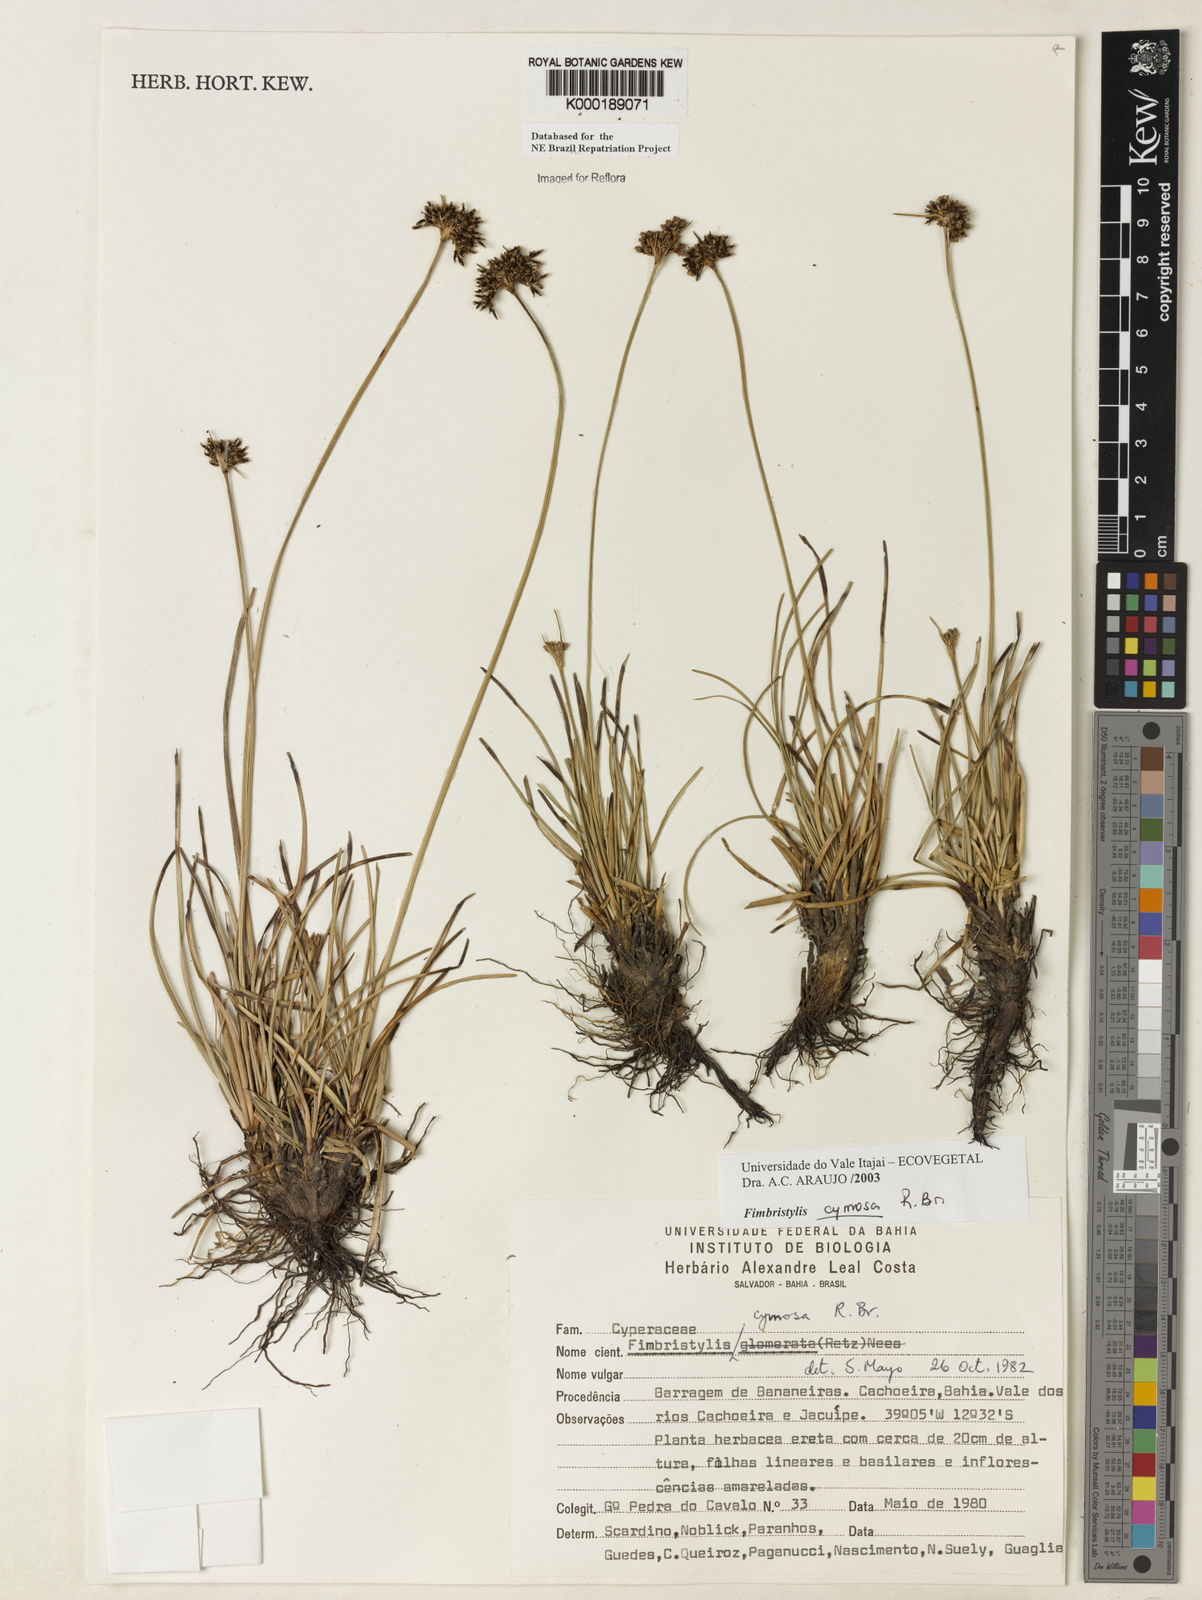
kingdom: Plantae
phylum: Tracheophyta
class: Liliopsida
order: Poales
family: Cyperaceae
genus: Fimbristylis
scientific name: Fimbristylis cymosa
